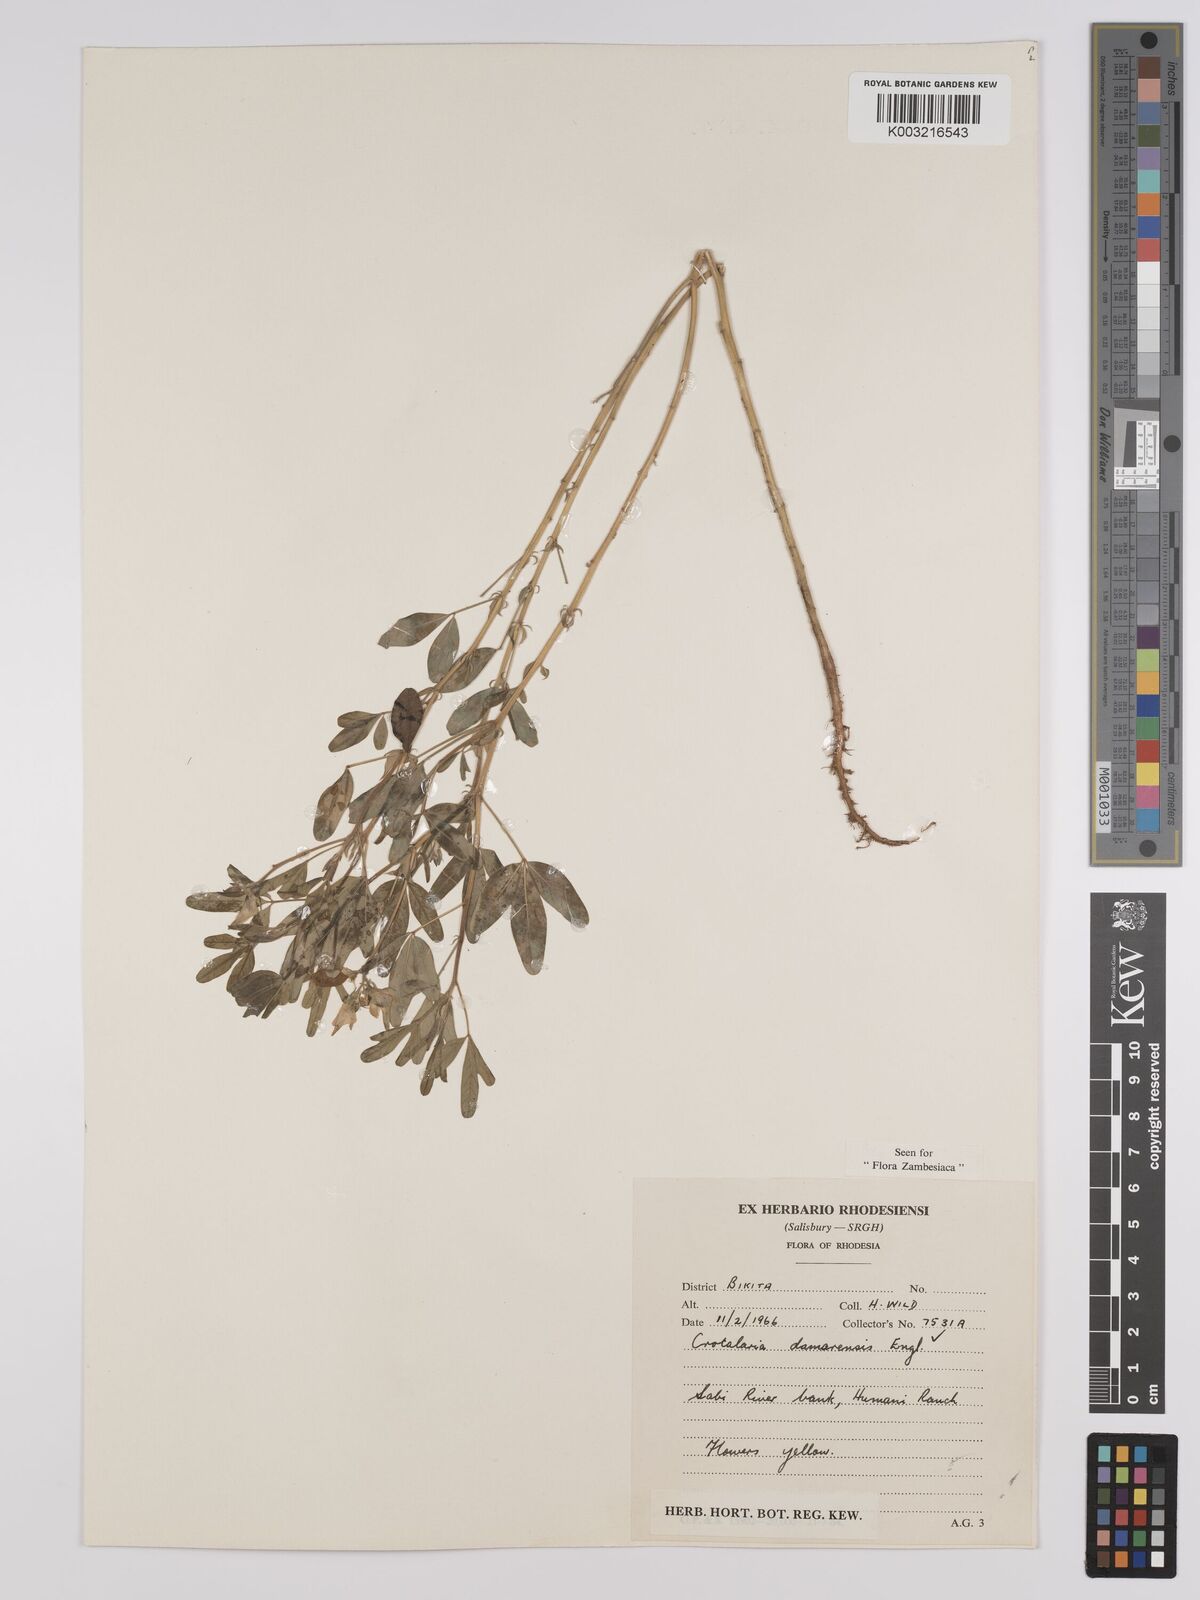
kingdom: Plantae
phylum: Tracheophyta
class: Magnoliopsida
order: Fabales
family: Fabaceae
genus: Crotalaria
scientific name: Crotalaria damarensis
